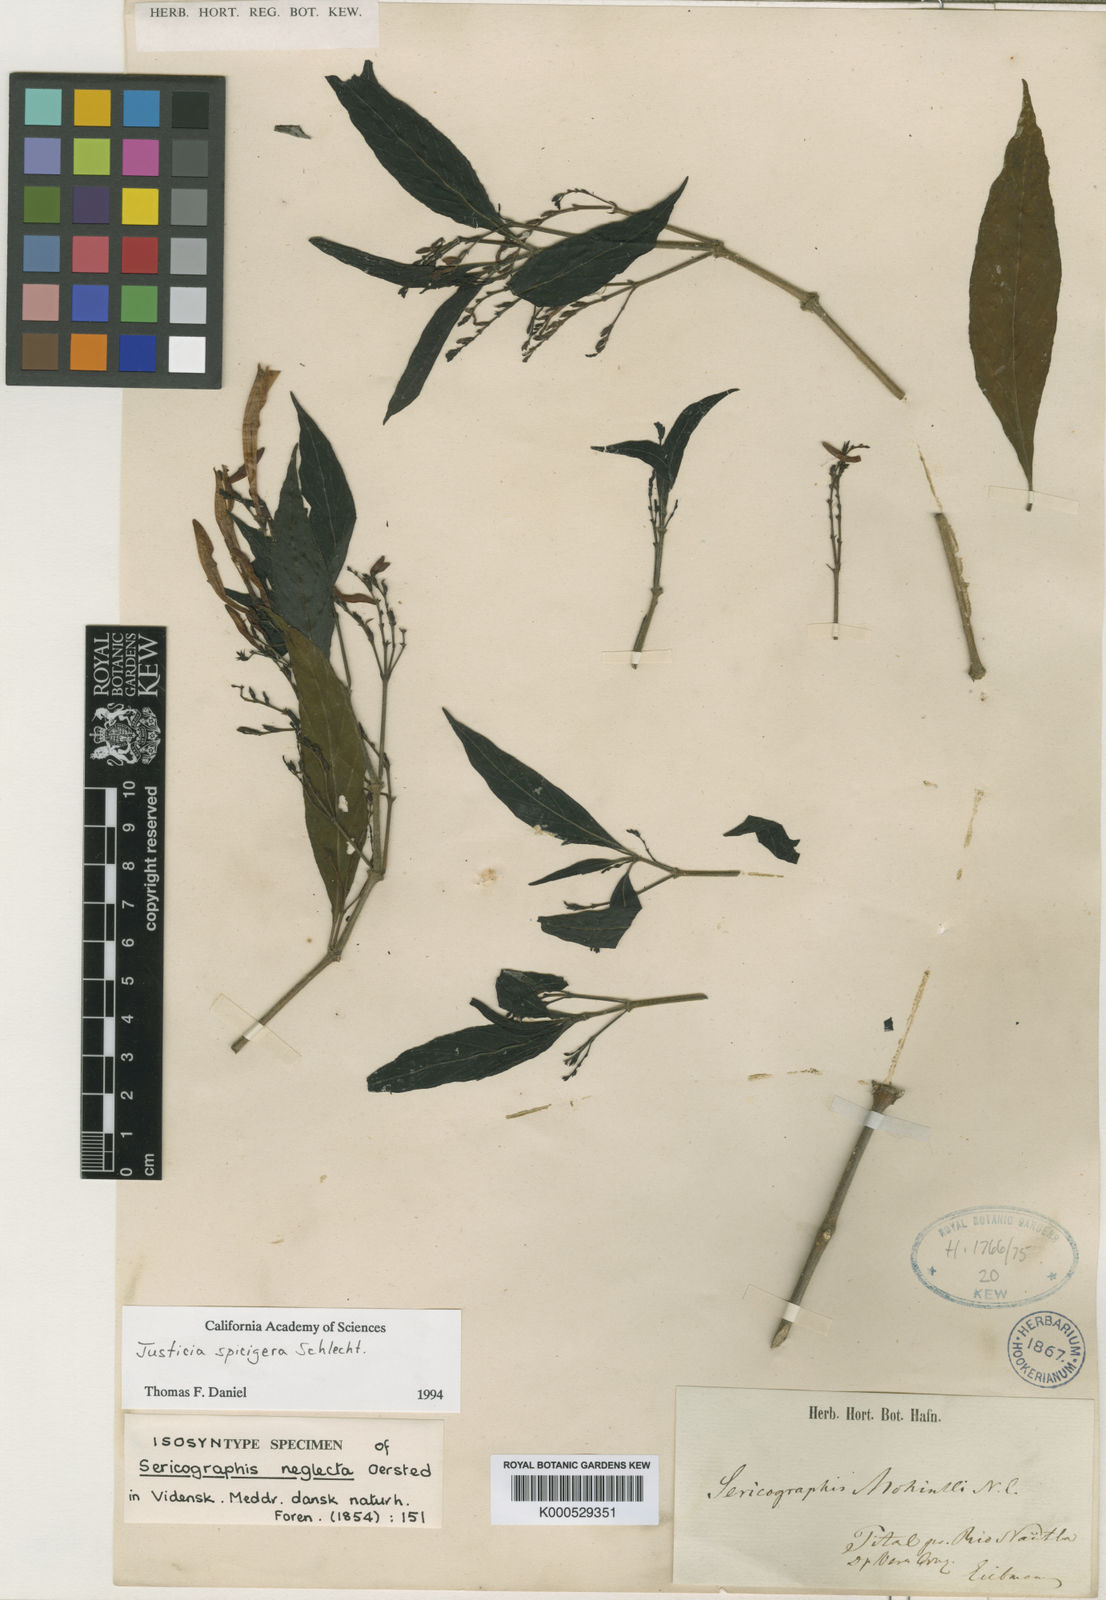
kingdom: Plantae
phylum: Tracheophyta
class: Magnoliopsida
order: Lamiales
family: Acanthaceae
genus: Justicia
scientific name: Justicia spicigera
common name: Mohintli
